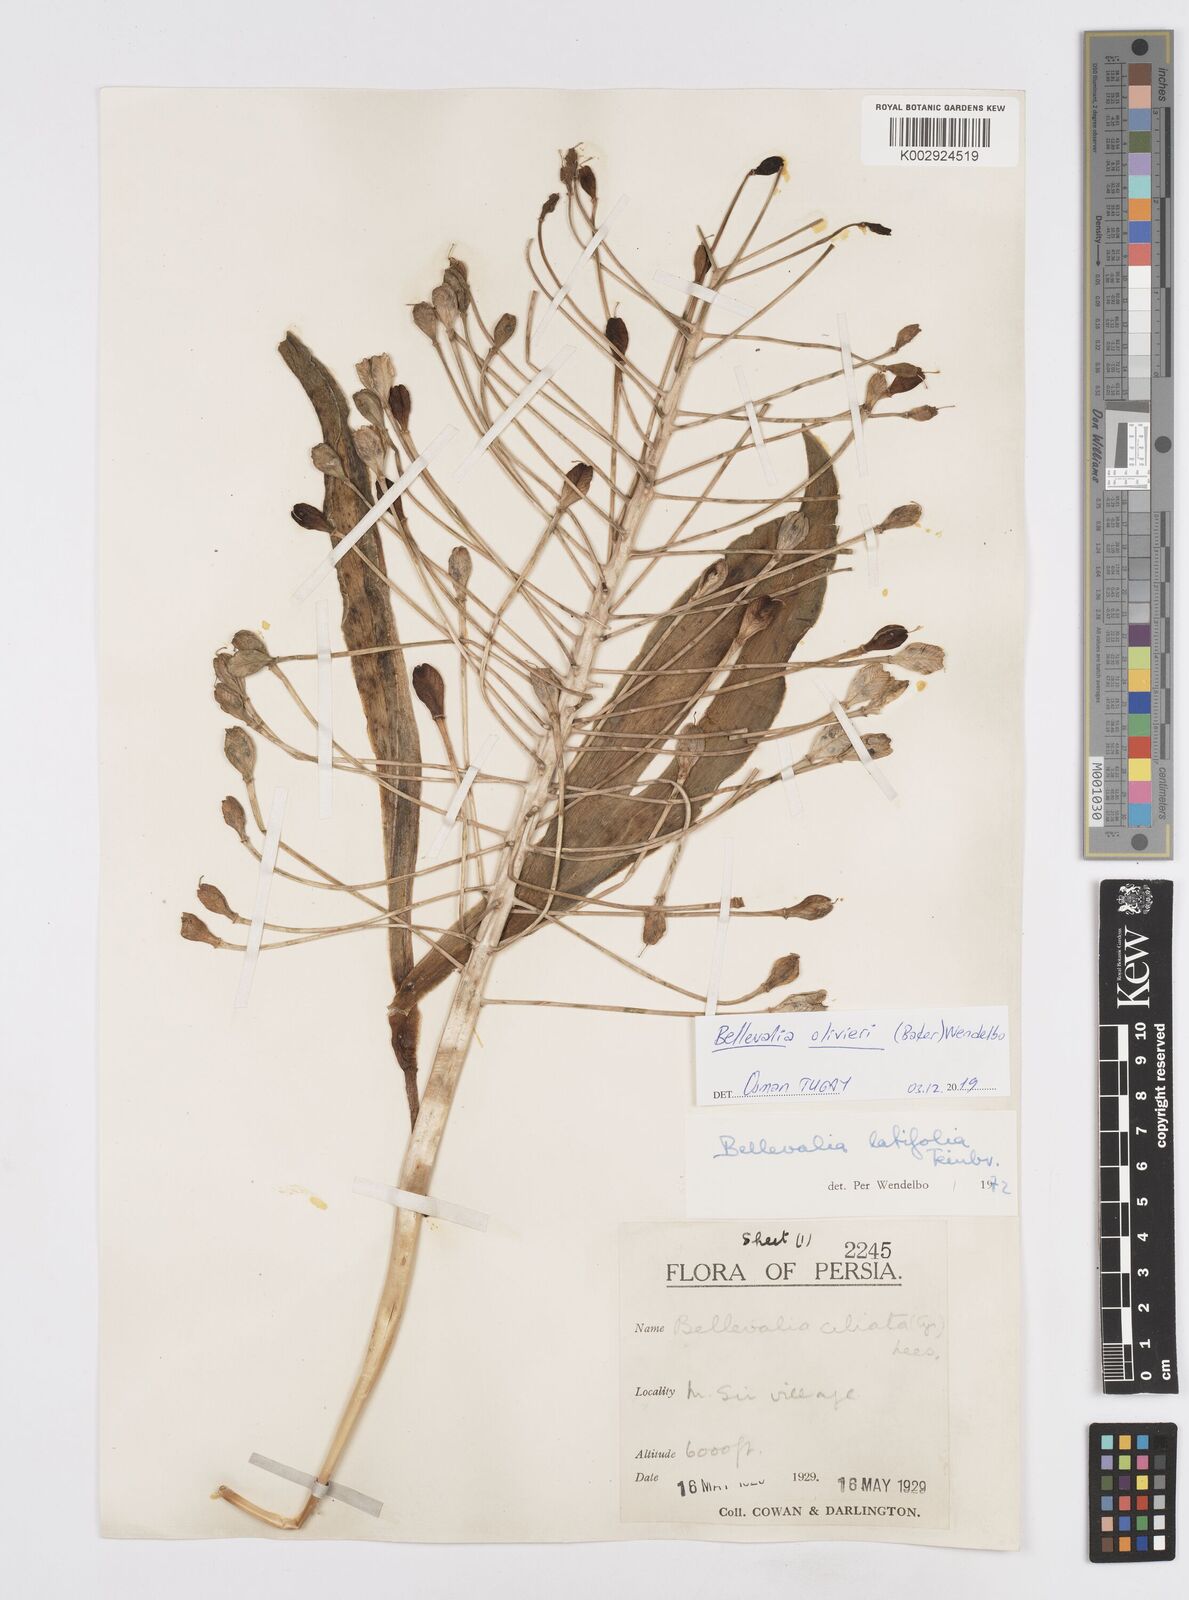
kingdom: Plantae
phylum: Tracheophyta
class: Liliopsida
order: Asparagales
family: Asparagaceae
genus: Bellevalia
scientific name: Bellevalia olivieri
